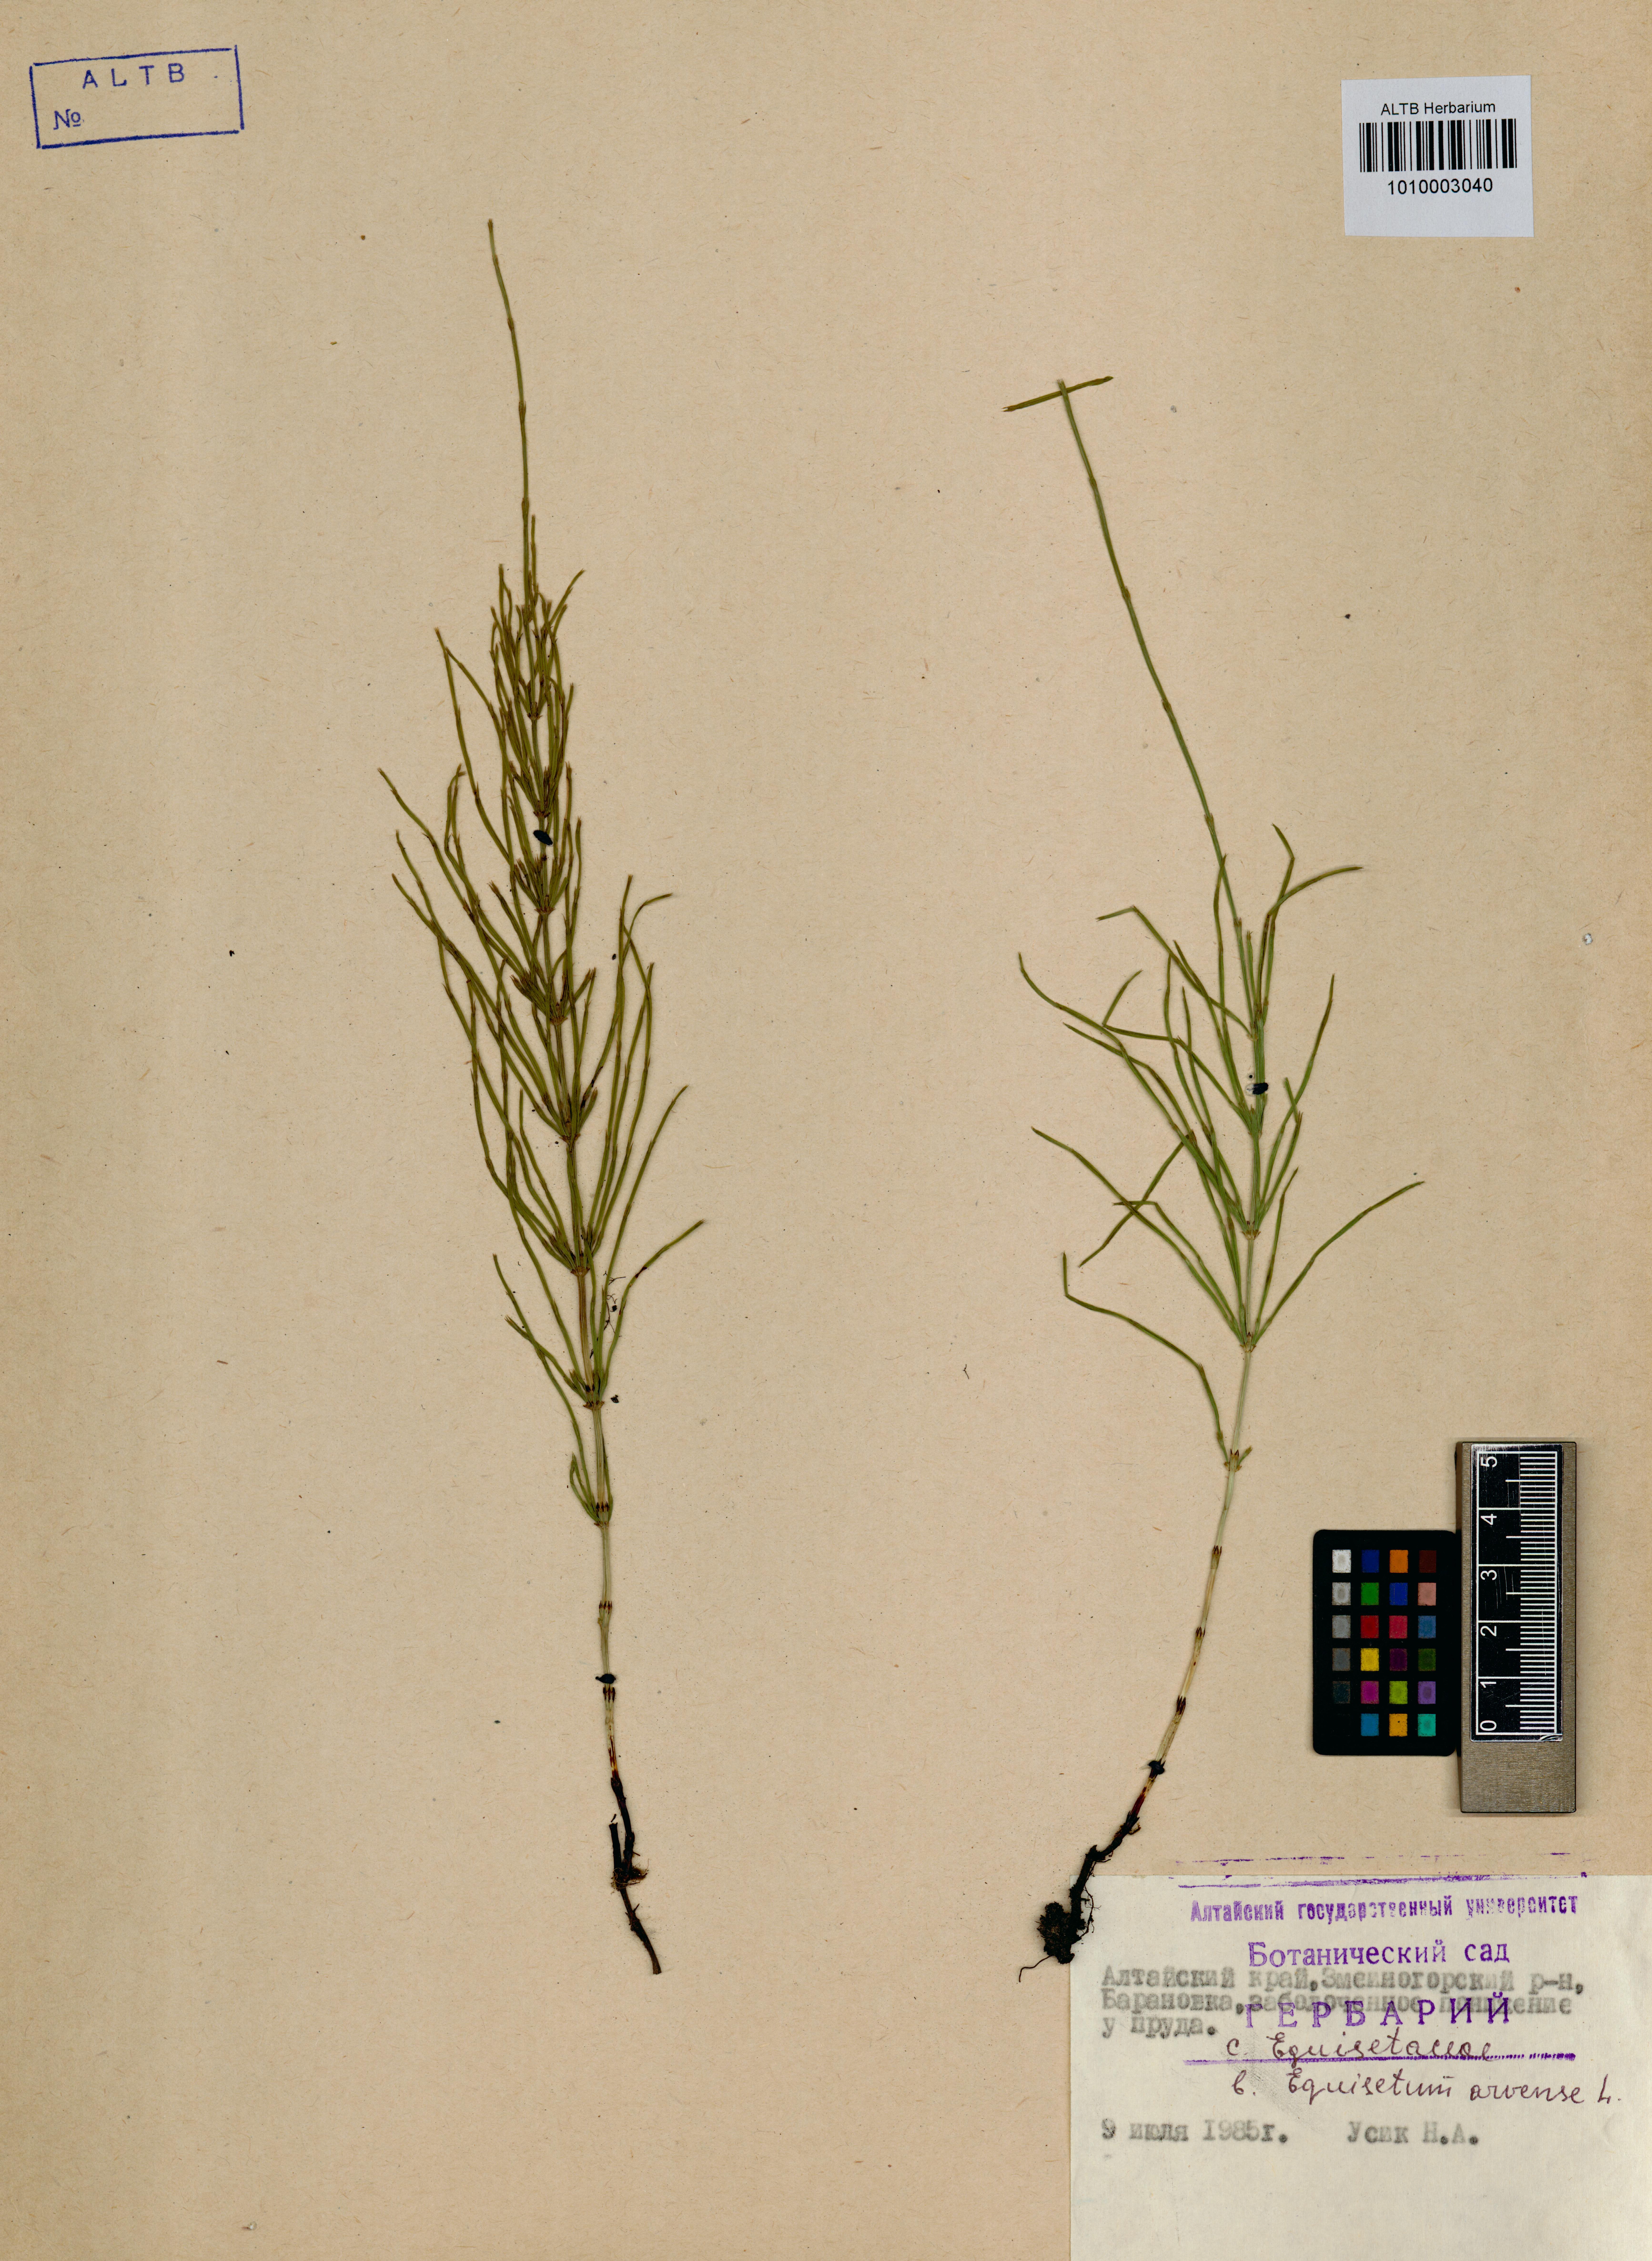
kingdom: Plantae
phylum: Tracheophyta
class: Polypodiopsida
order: Equisetales
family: Equisetaceae
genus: Equisetum
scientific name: Equisetum arvense
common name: Field horsetail
